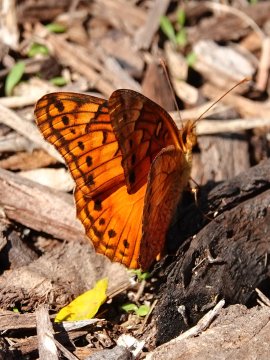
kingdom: Animalia
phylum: Arthropoda
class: Insecta
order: Lepidoptera
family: Nymphalidae
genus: Euptoieta
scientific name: Euptoieta hegesia
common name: Mexican Fritillary
